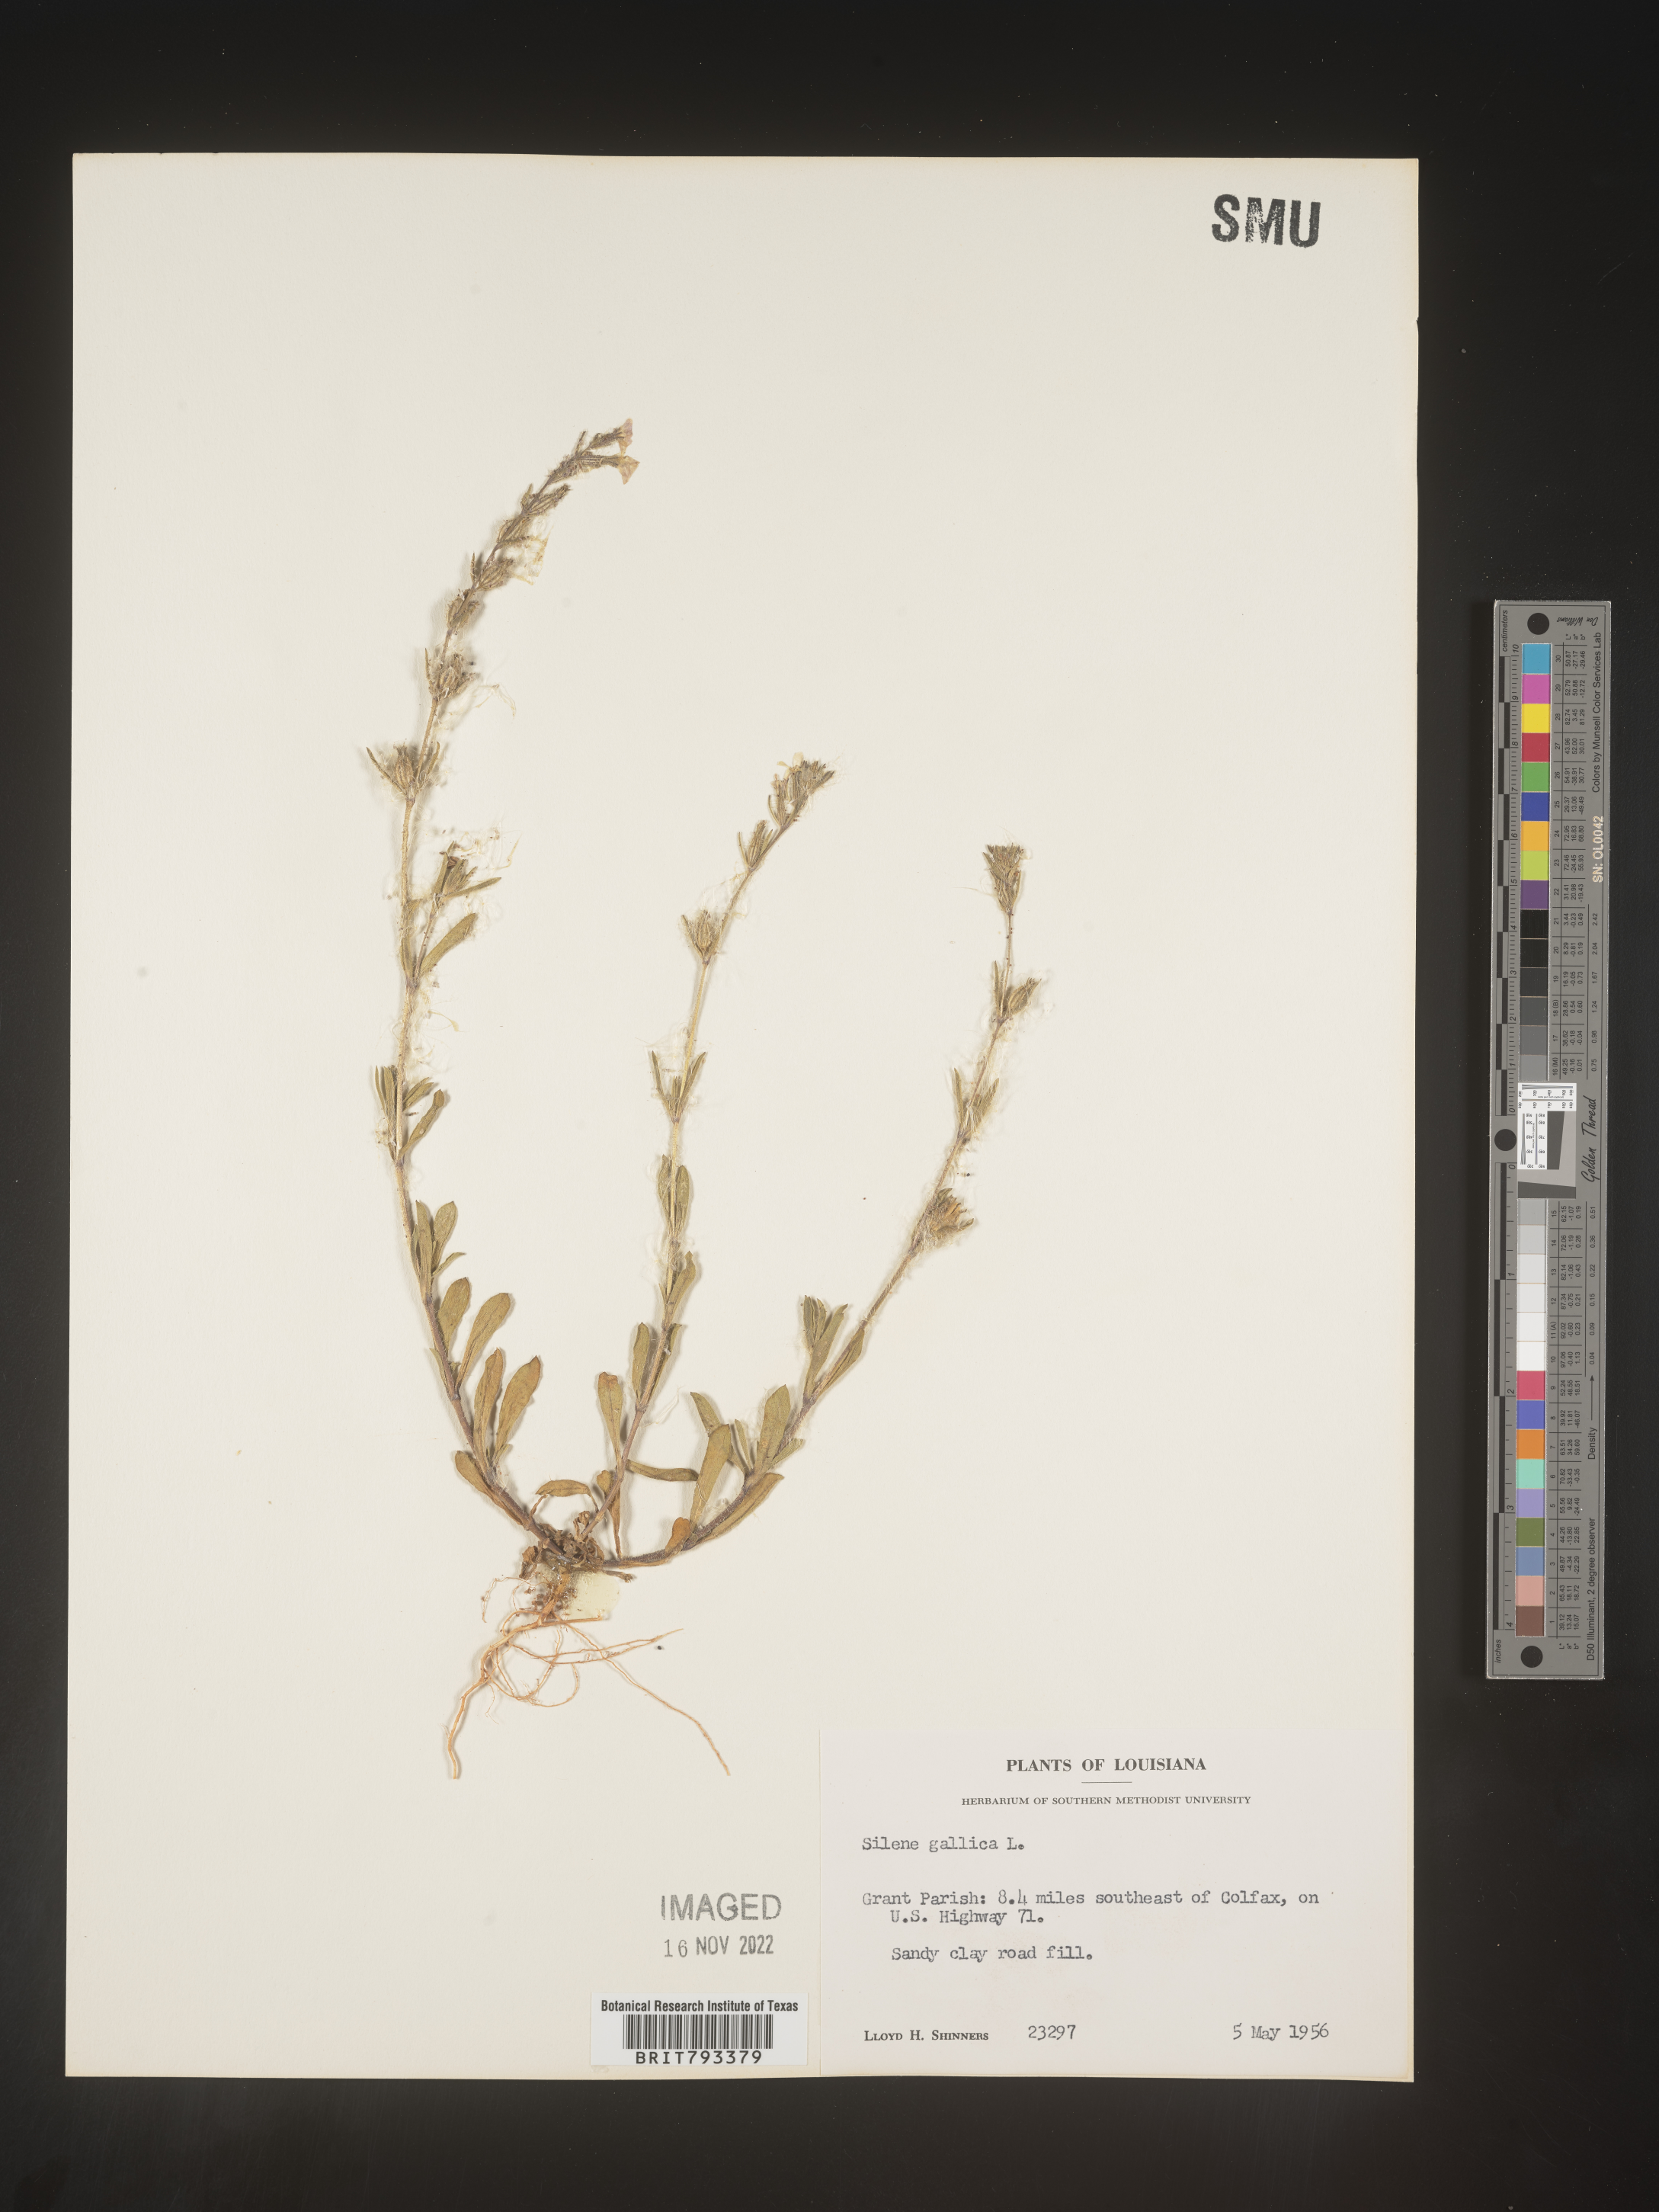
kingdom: Plantae
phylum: Tracheophyta
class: Magnoliopsida
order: Caryophyllales
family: Caryophyllaceae
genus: Silene
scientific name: Silene gallica
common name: Small-flowered catchfly
